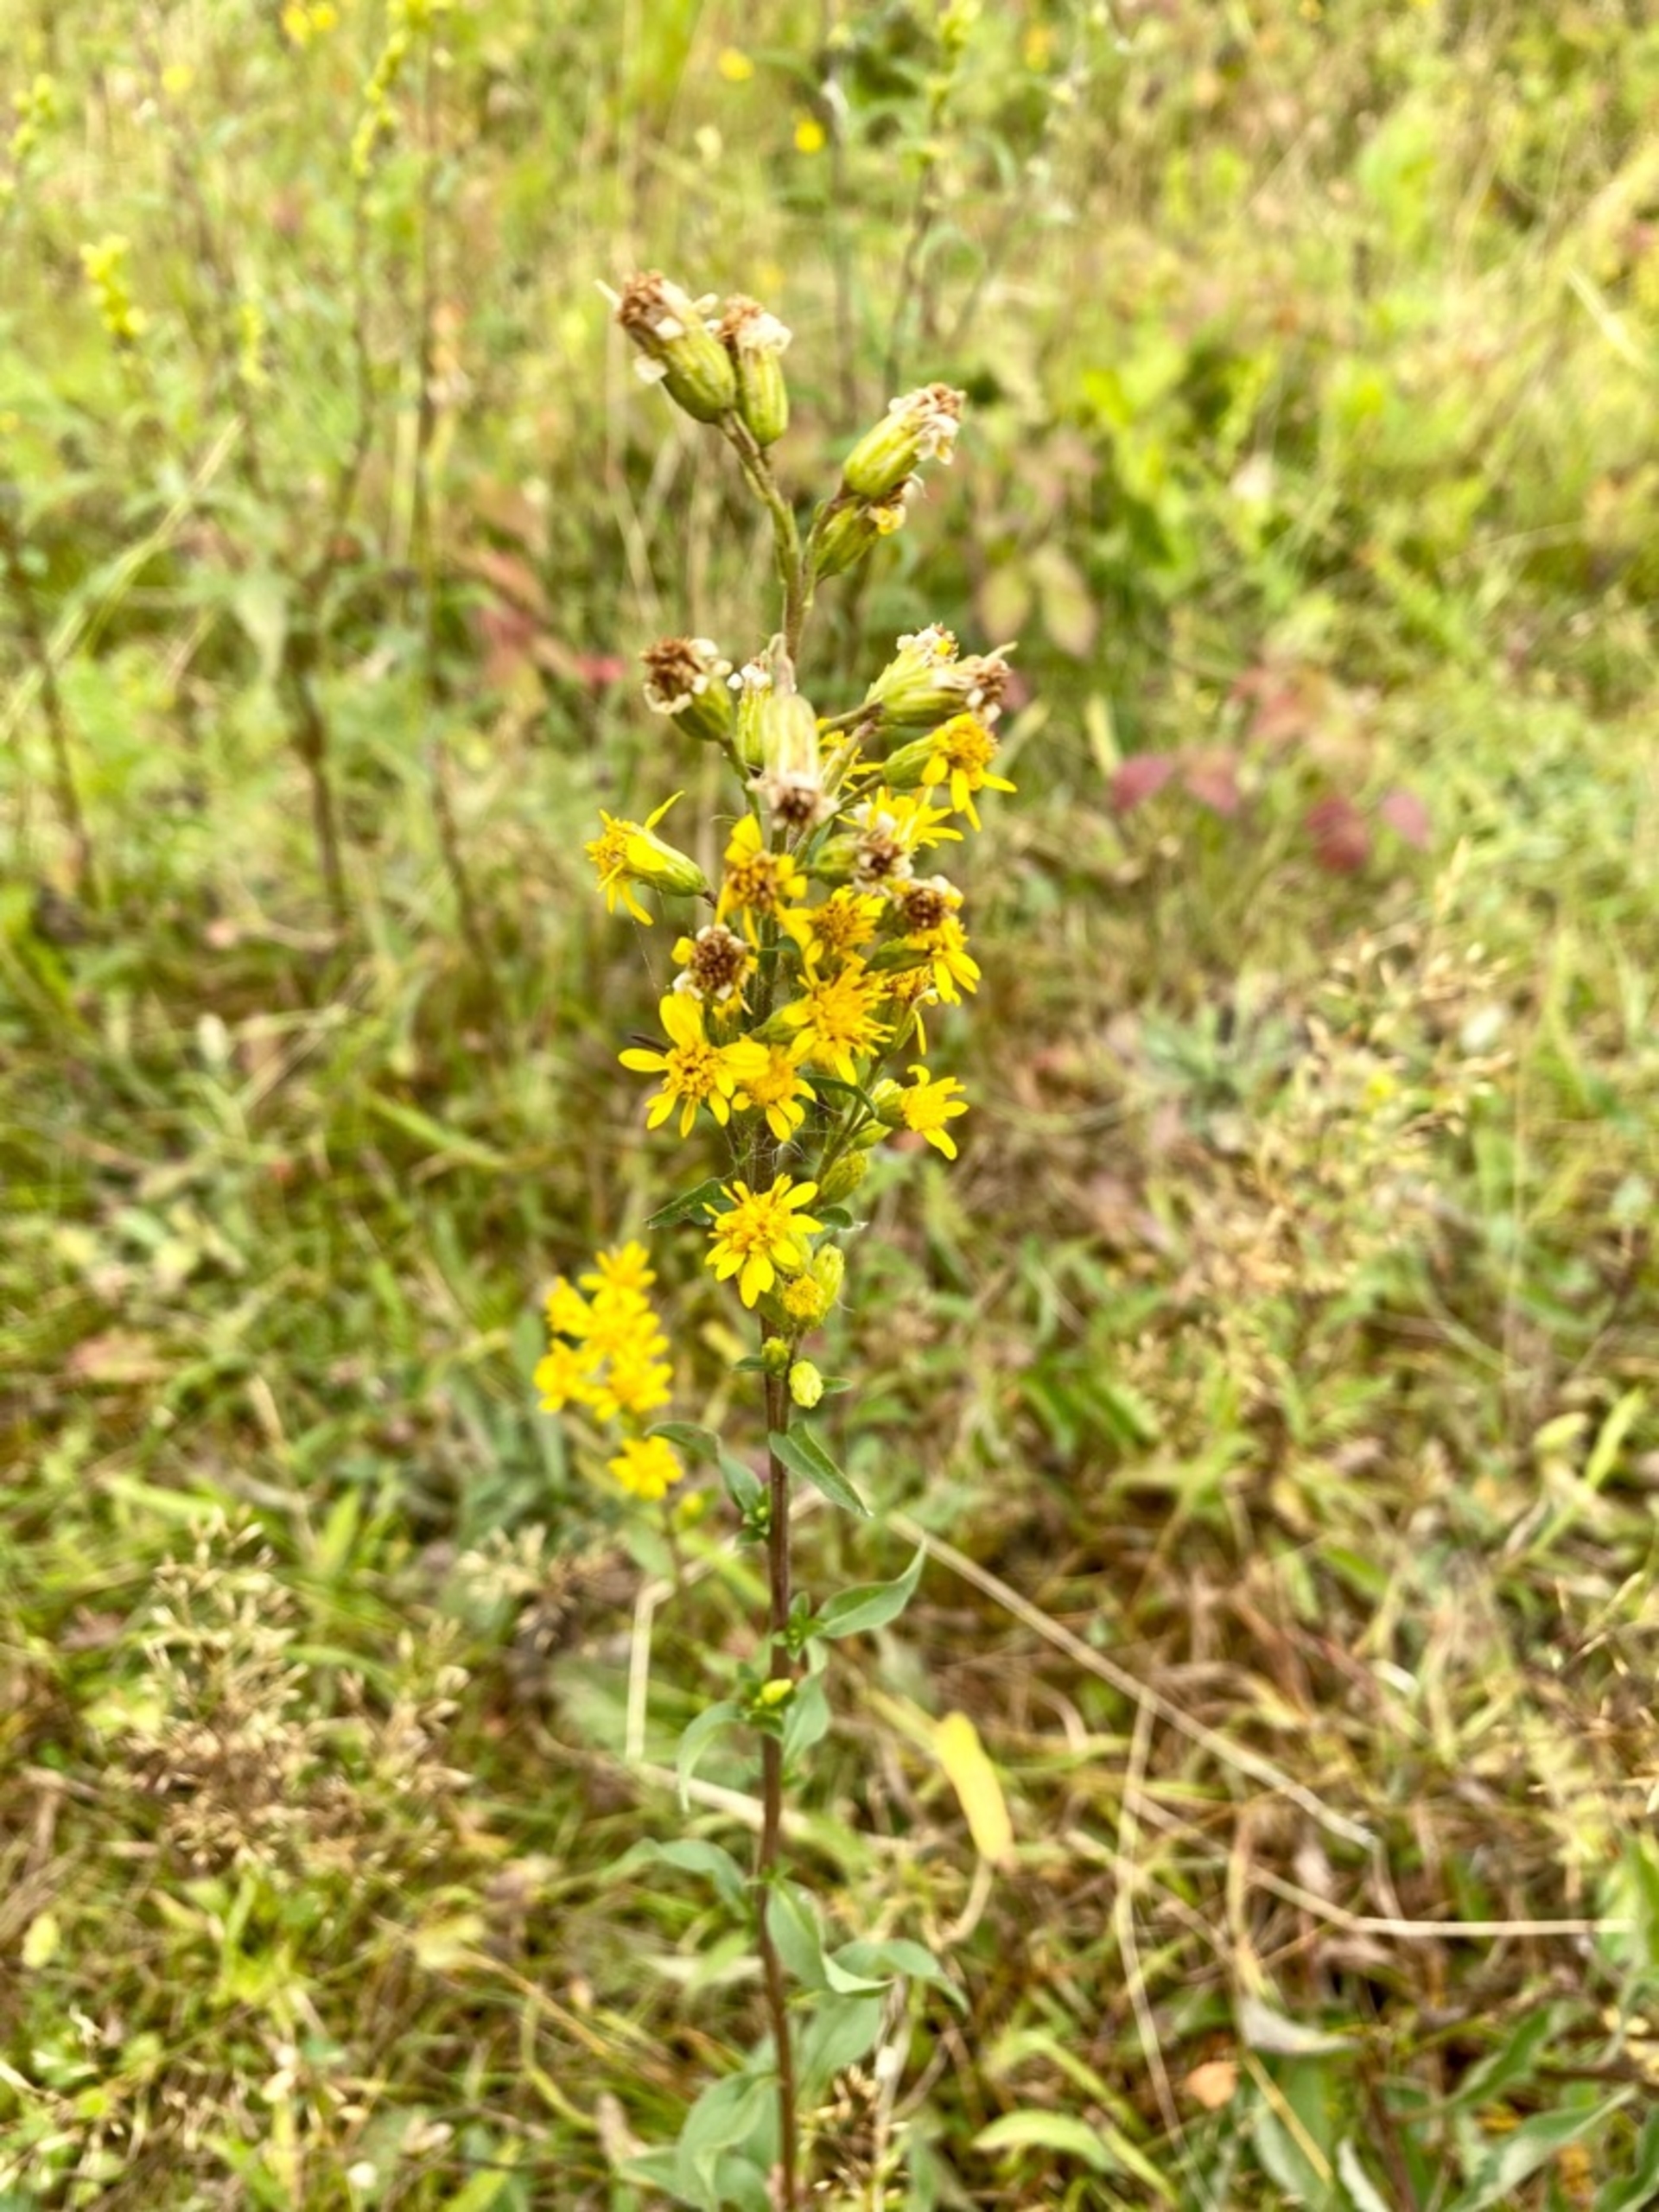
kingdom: Plantae
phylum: Tracheophyta
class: Magnoliopsida
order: Asterales
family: Asteraceae
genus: Solidago
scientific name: Solidago virgaurea
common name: Almindelig gyldenris
